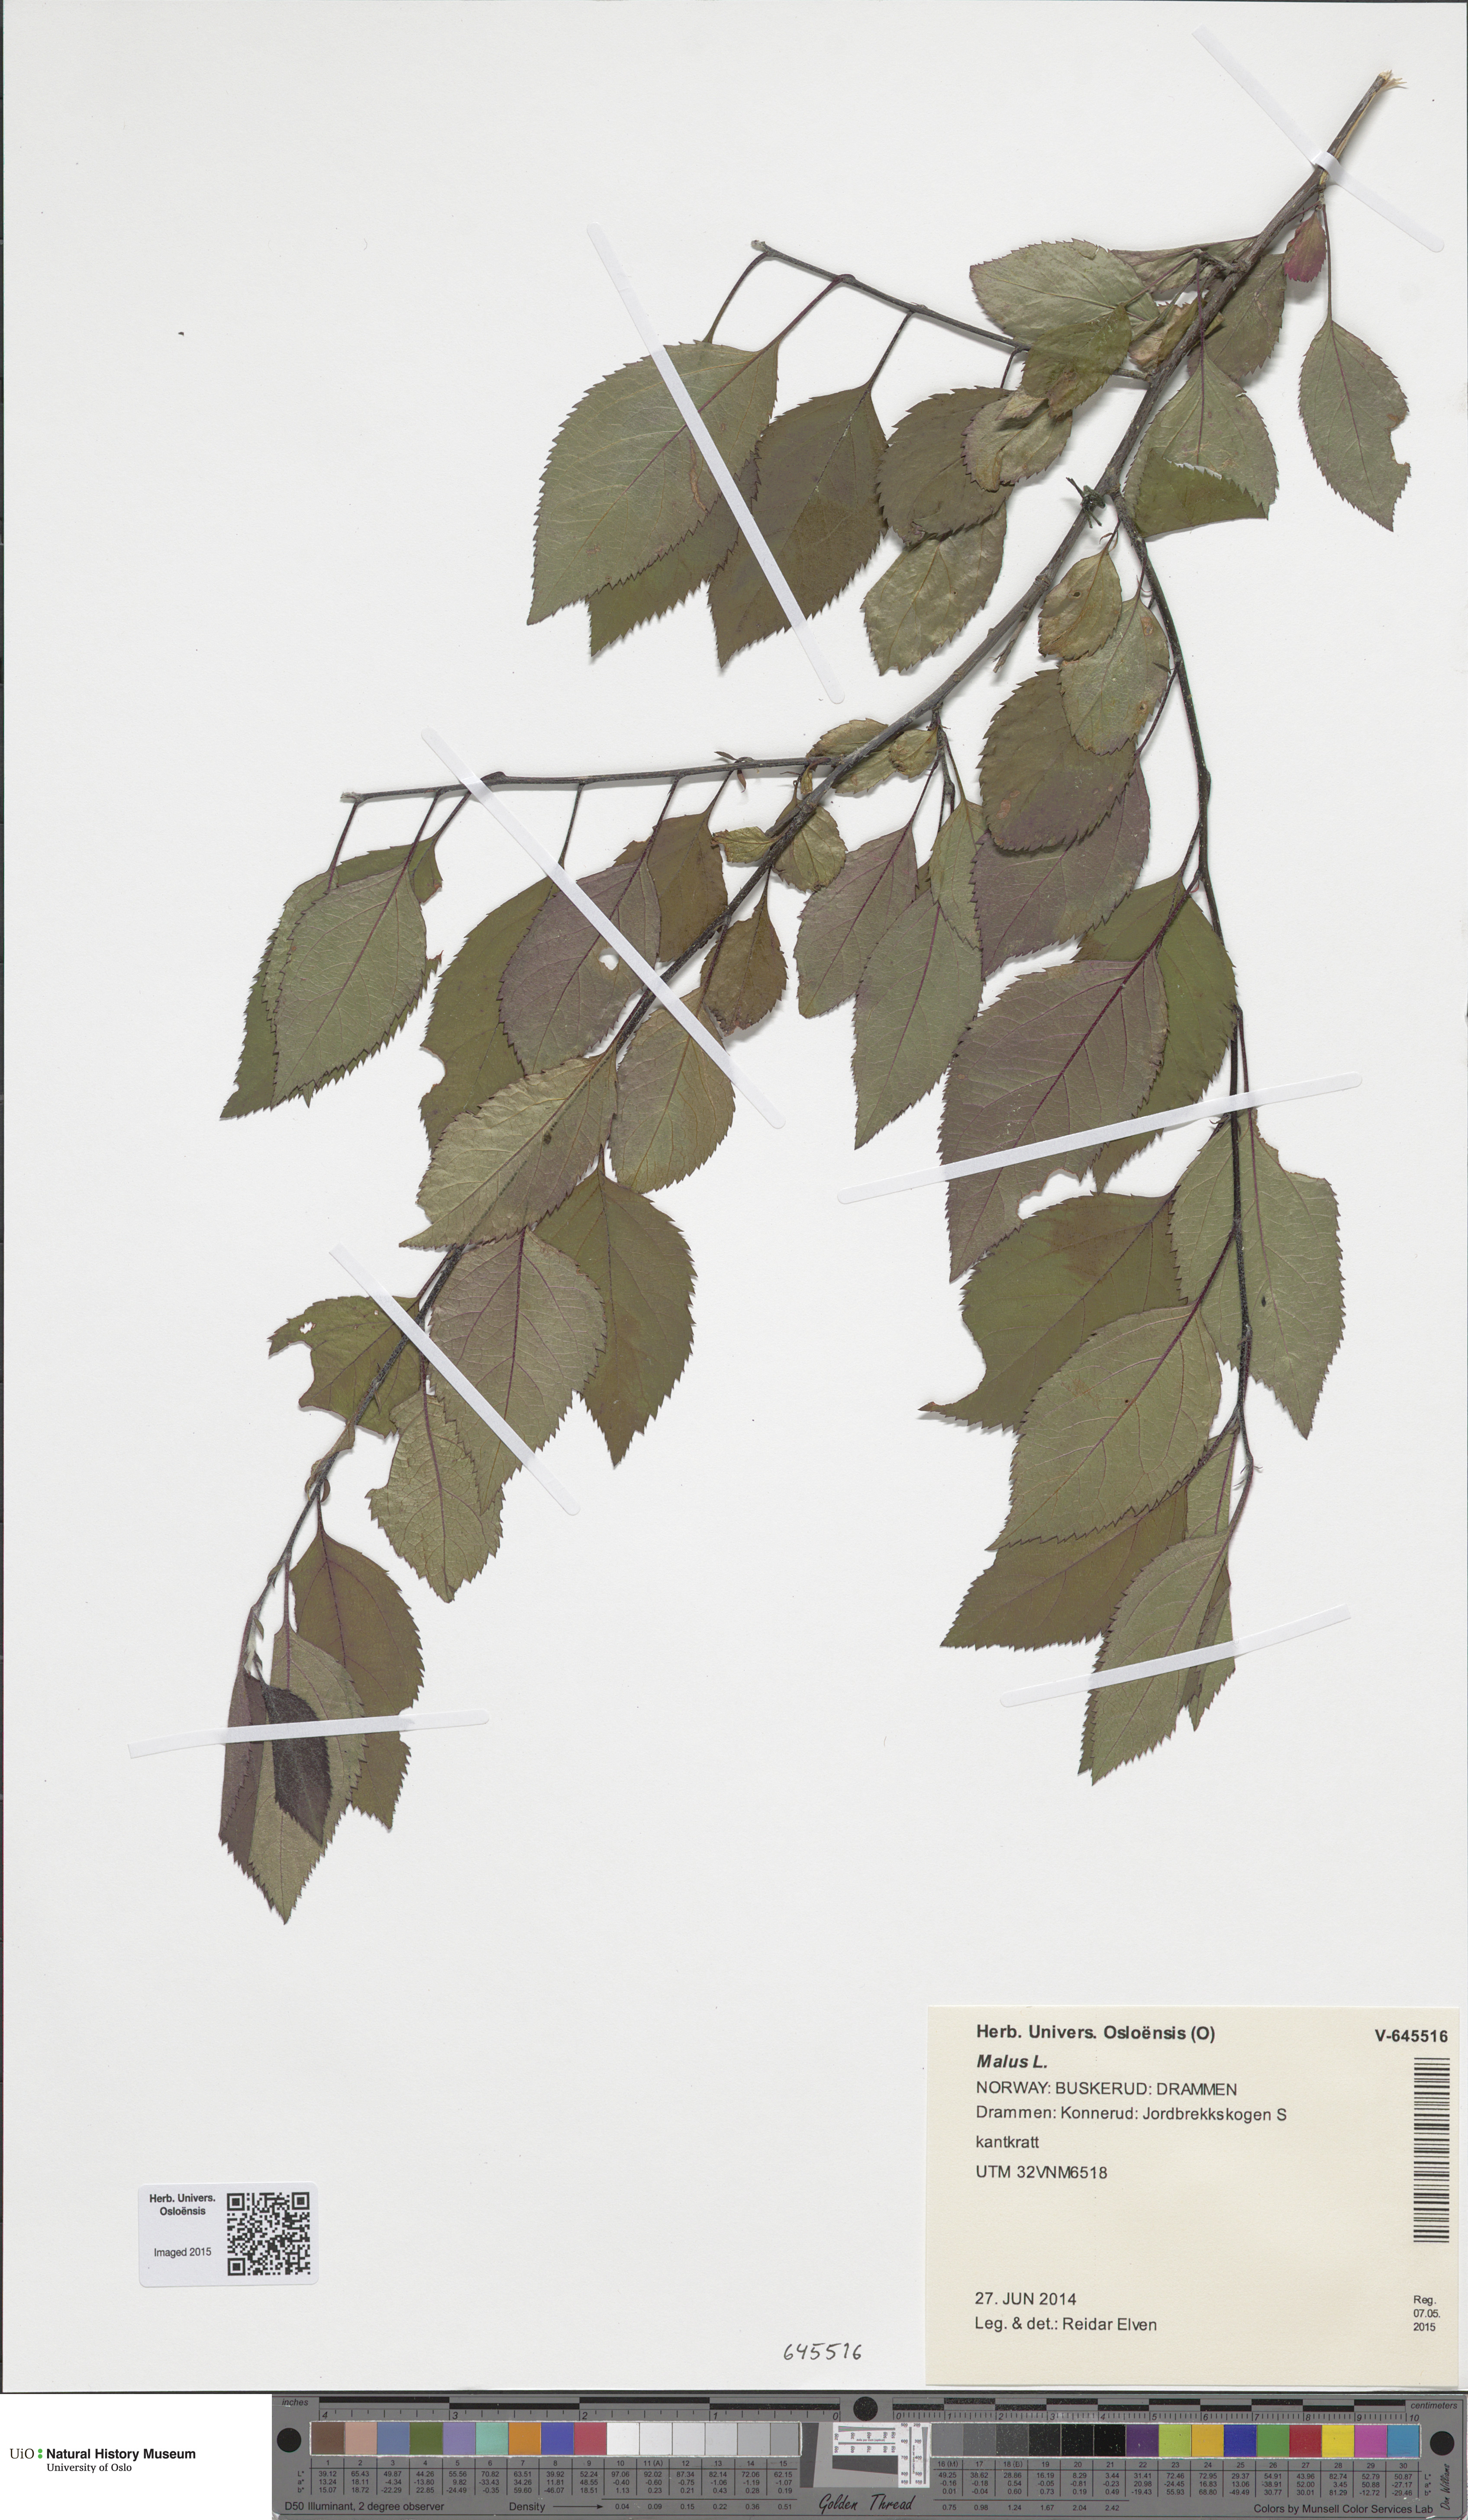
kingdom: Plantae
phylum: Tracheophyta
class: Magnoliopsida
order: Rosales
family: Rosaceae
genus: Malus
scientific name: Malus
